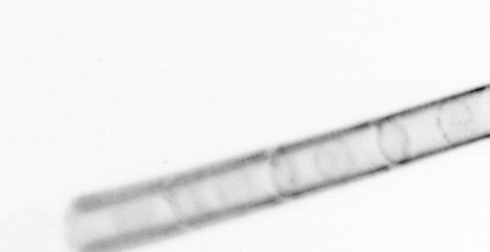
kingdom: Chromista
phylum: Ochrophyta
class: Bacillariophyceae
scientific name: Bacillariophyceae
